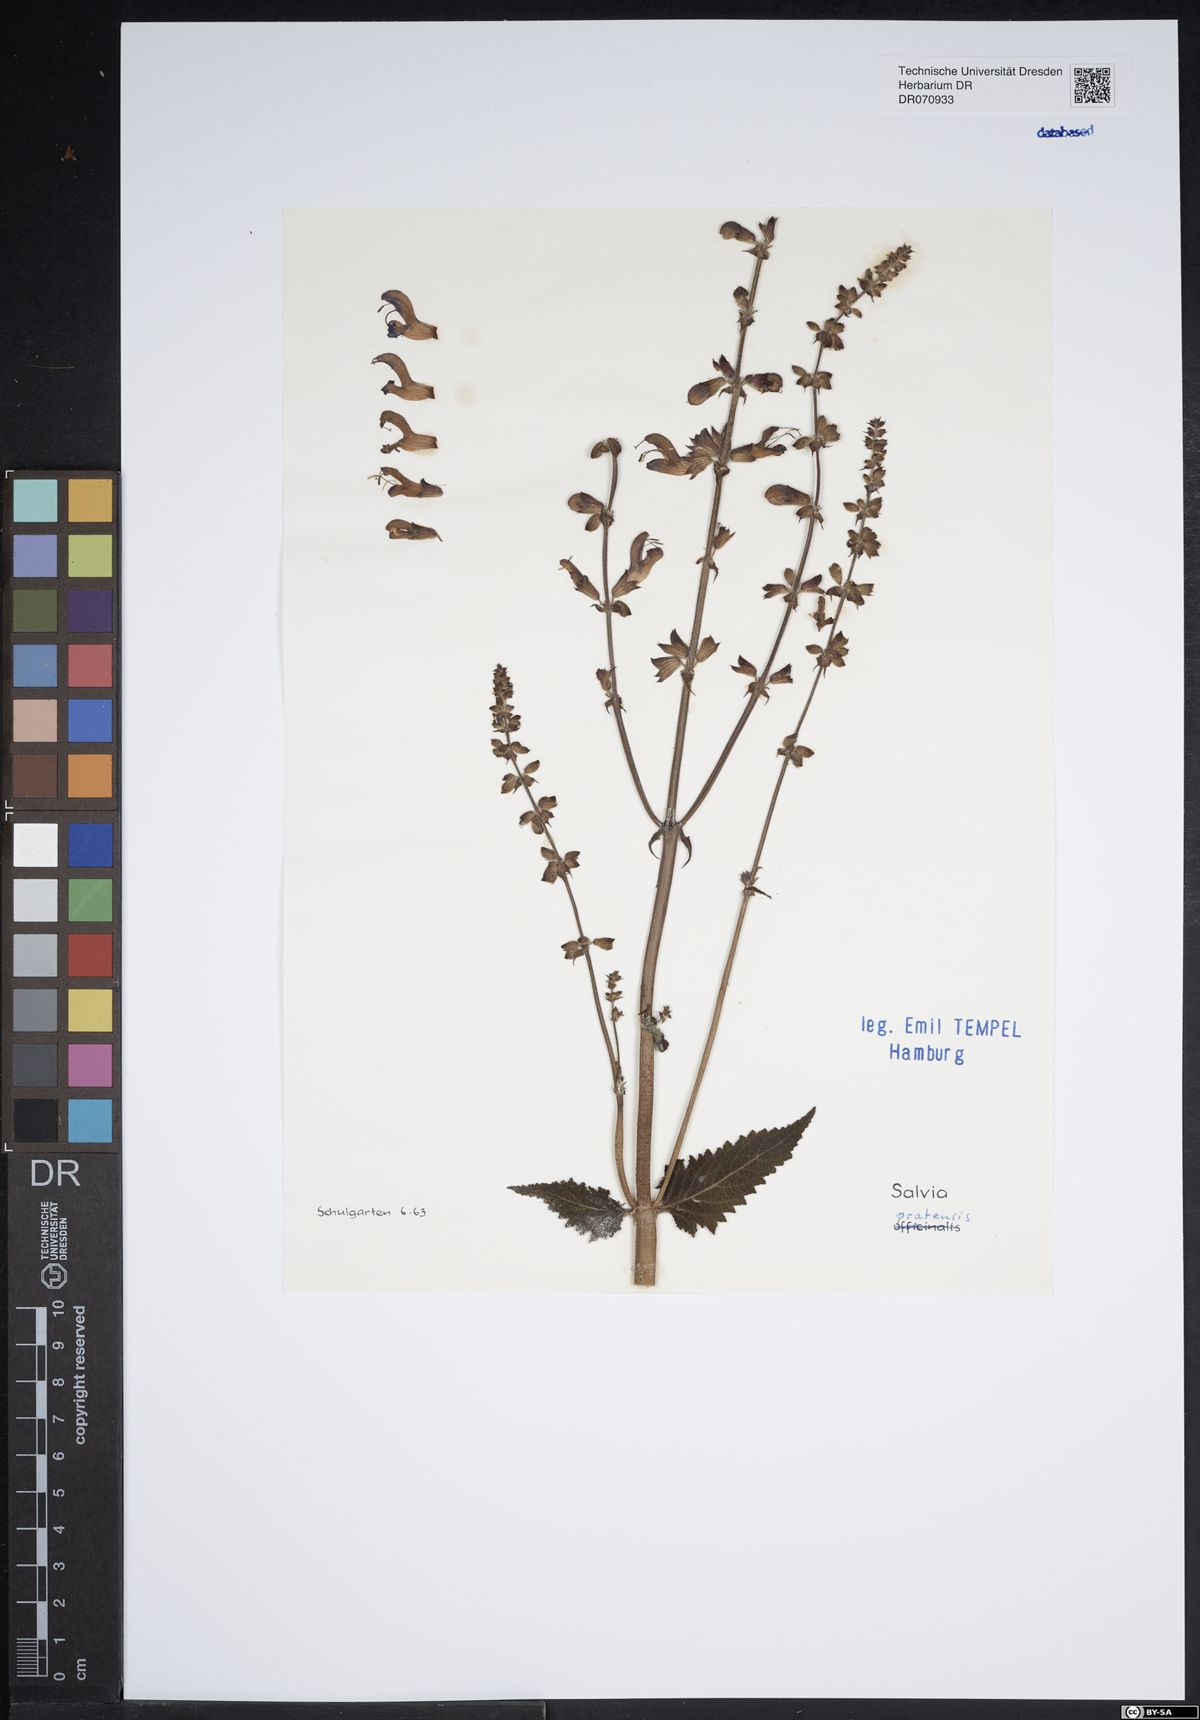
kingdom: Plantae
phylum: Tracheophyta
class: Magnoliopsida
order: Lamiales
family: Lamiaceae
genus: Salvia
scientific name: Salvia pratensis
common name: Meadow sage
